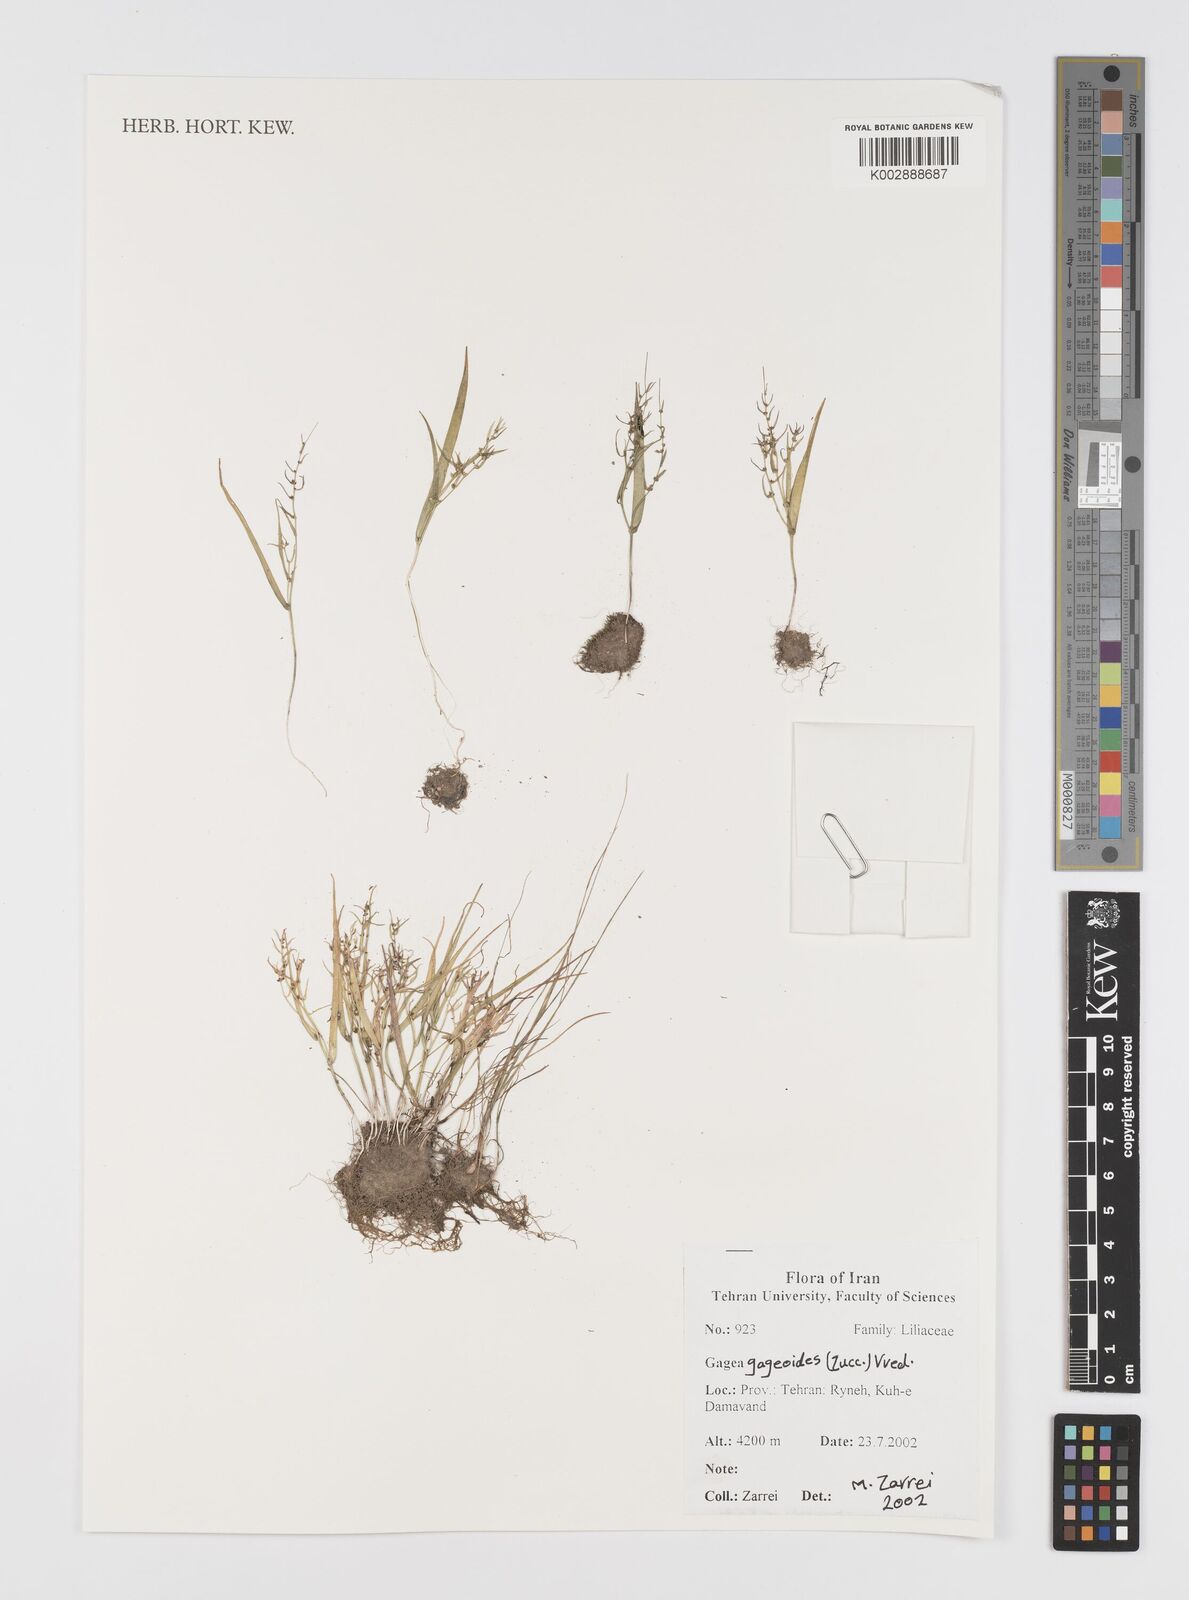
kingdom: Plantae
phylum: Tracheophyta
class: Liliopsida
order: Liliales
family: Liliaceae
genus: Gagea
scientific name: Gagea gageoides
